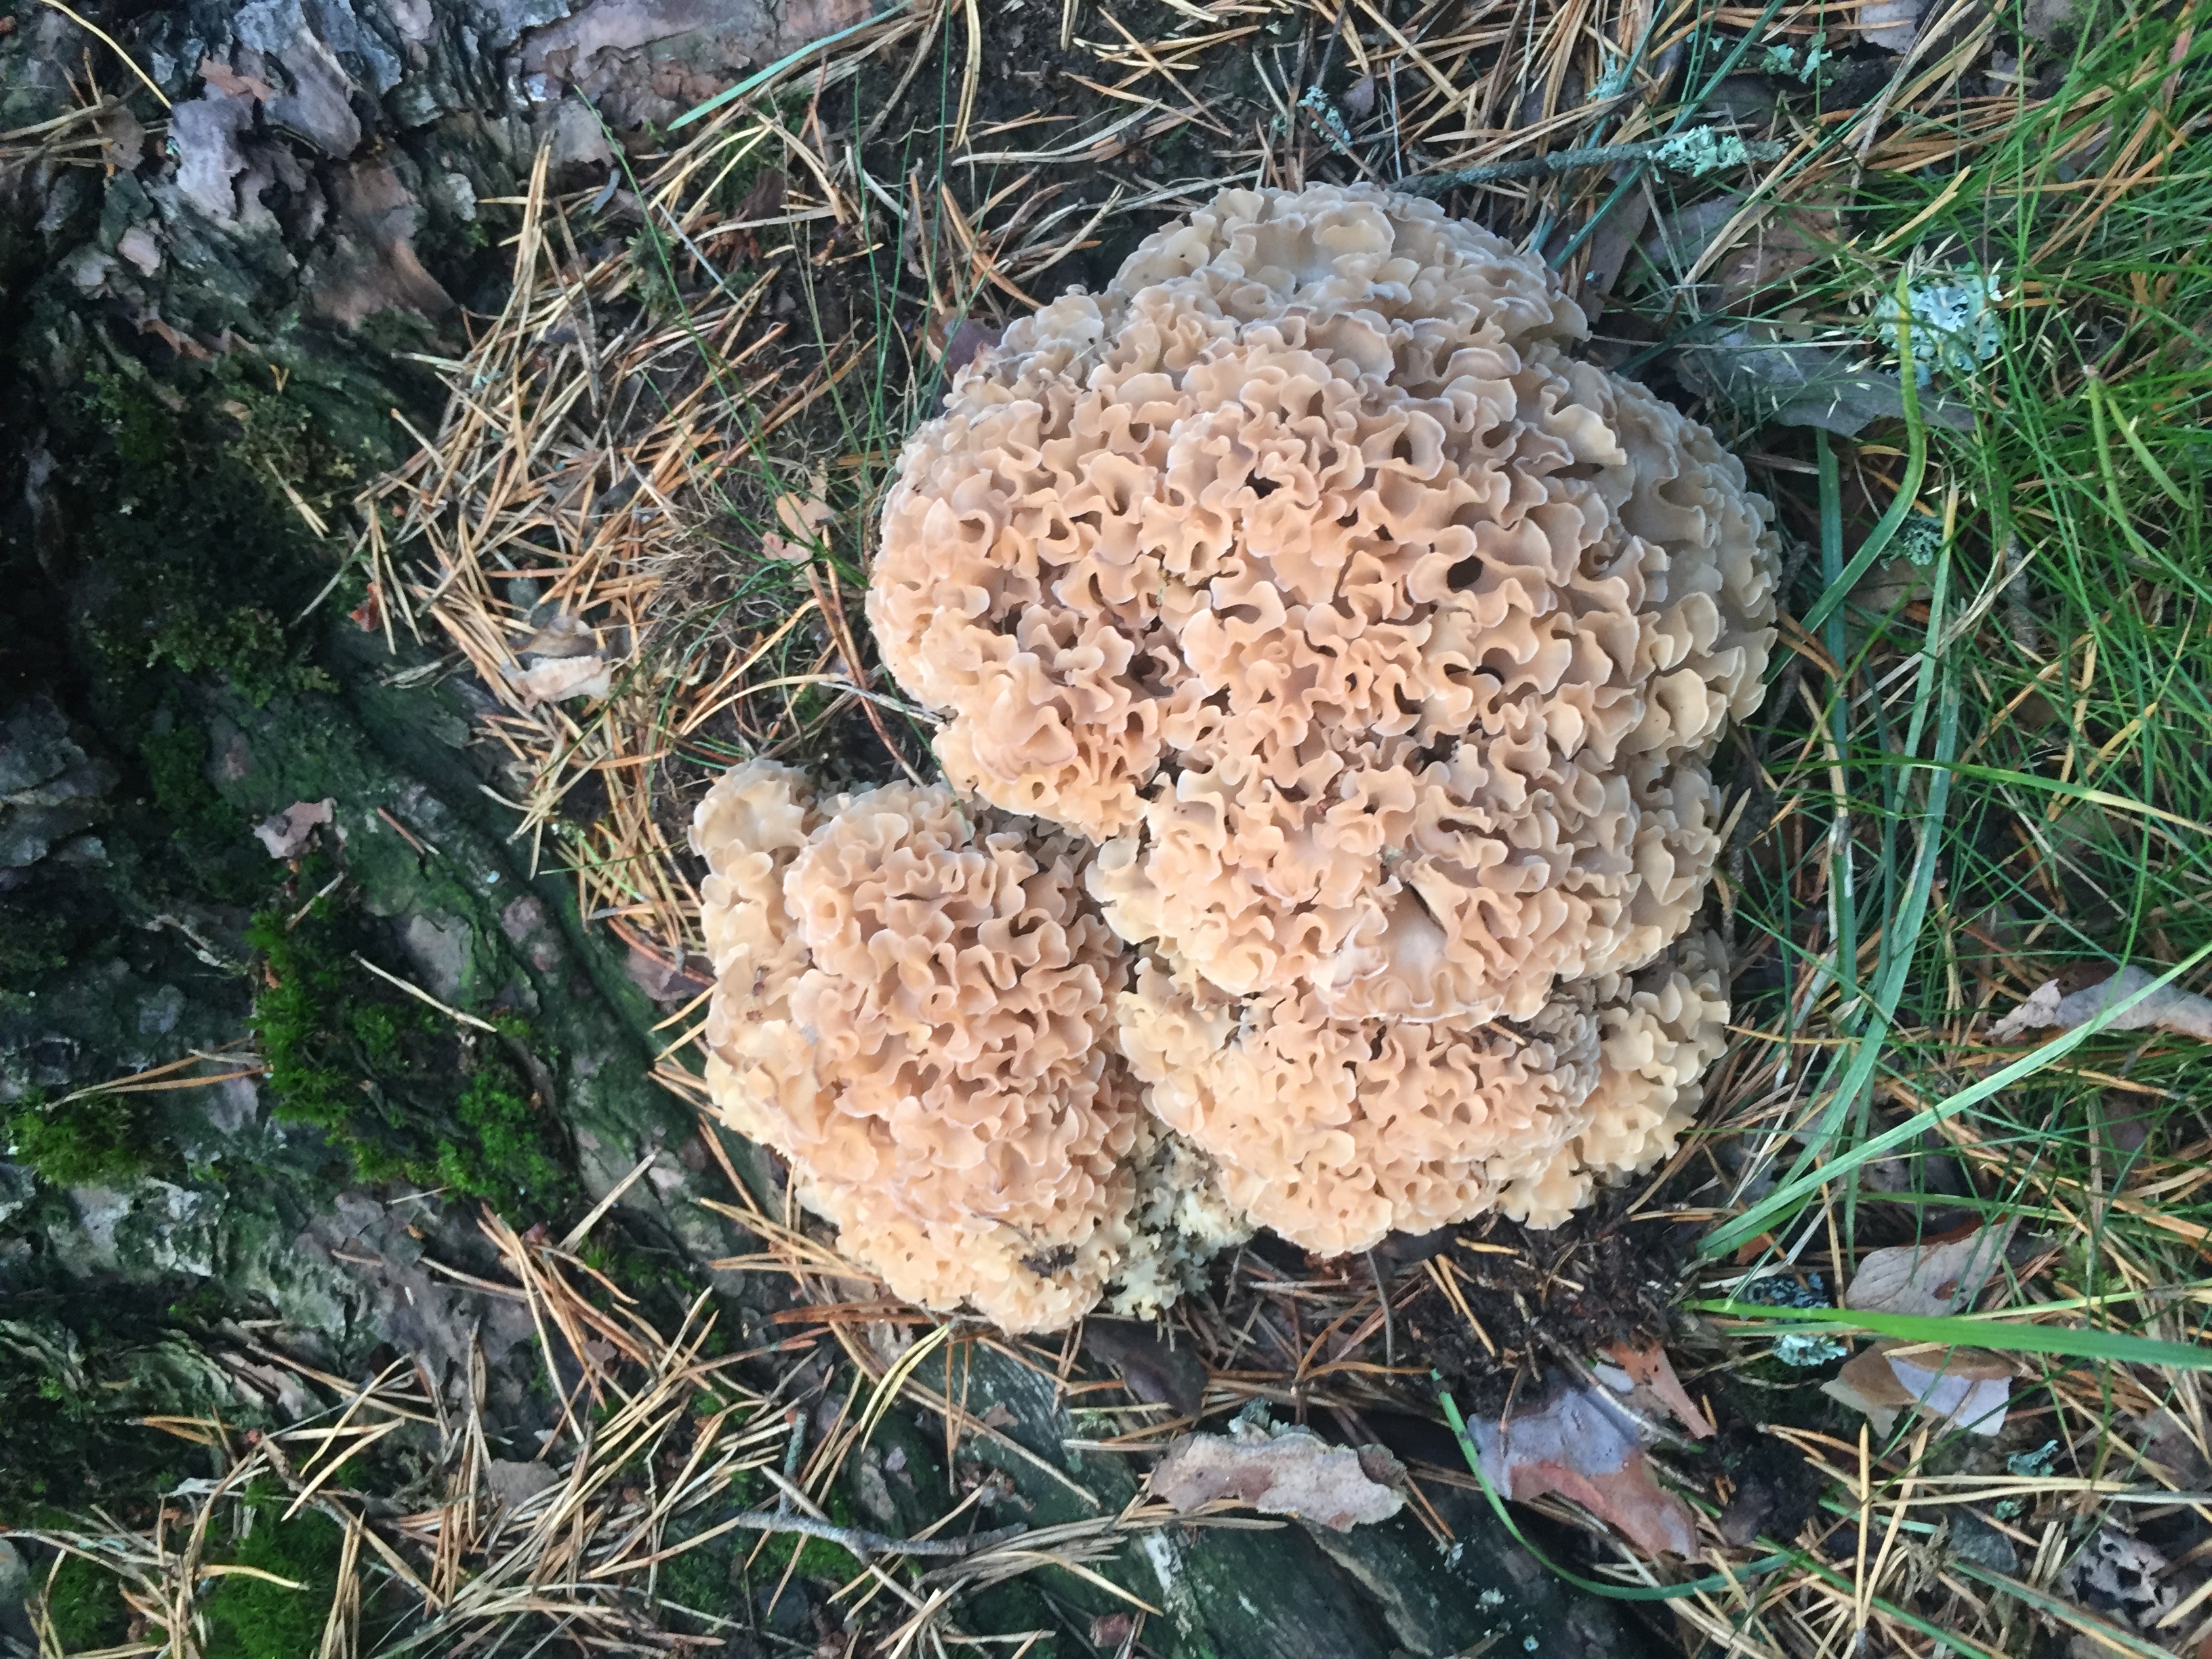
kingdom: Fungi
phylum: Basidiomycota
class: Agaricomycetes
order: Polyporales
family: Sparassidaceae
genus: Sparassis
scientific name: Sparassis crispa
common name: Brain fungus
